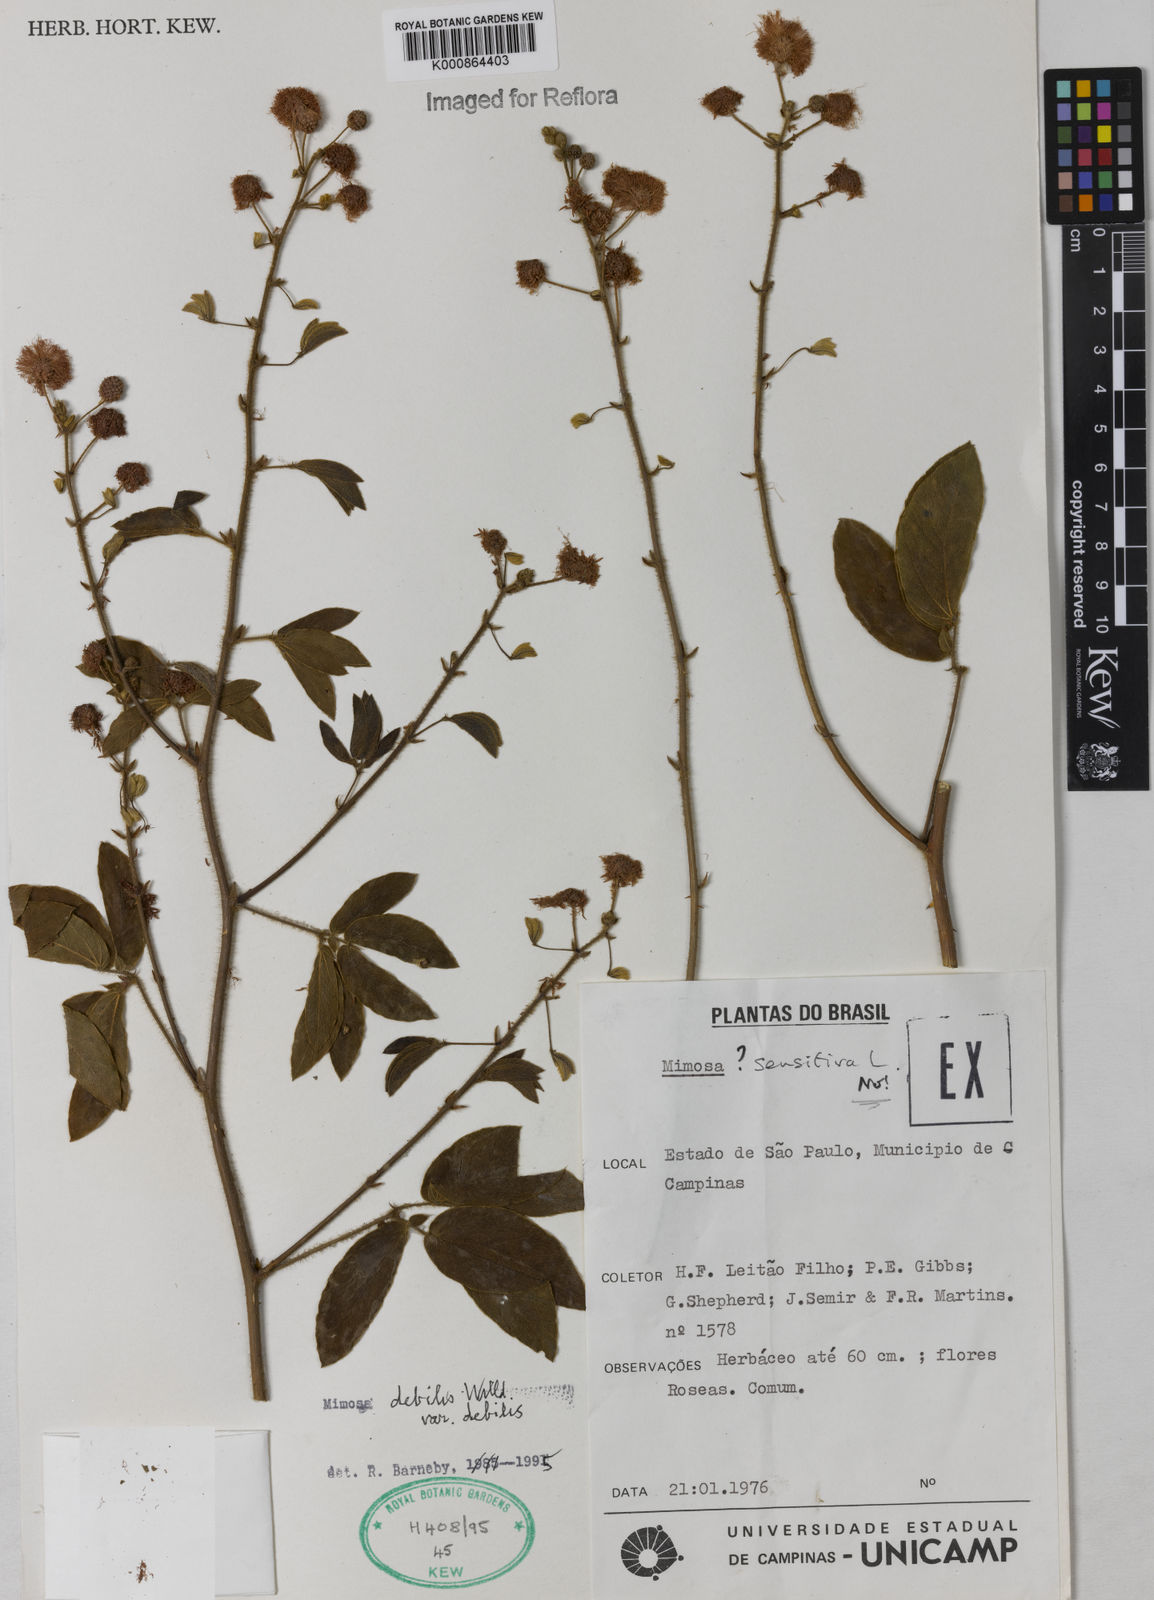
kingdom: Plantae
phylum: Tracheophyta
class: Magnoliopsida
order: Fabales
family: Fabaceae
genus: Mimosa
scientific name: Mimosa debilis
